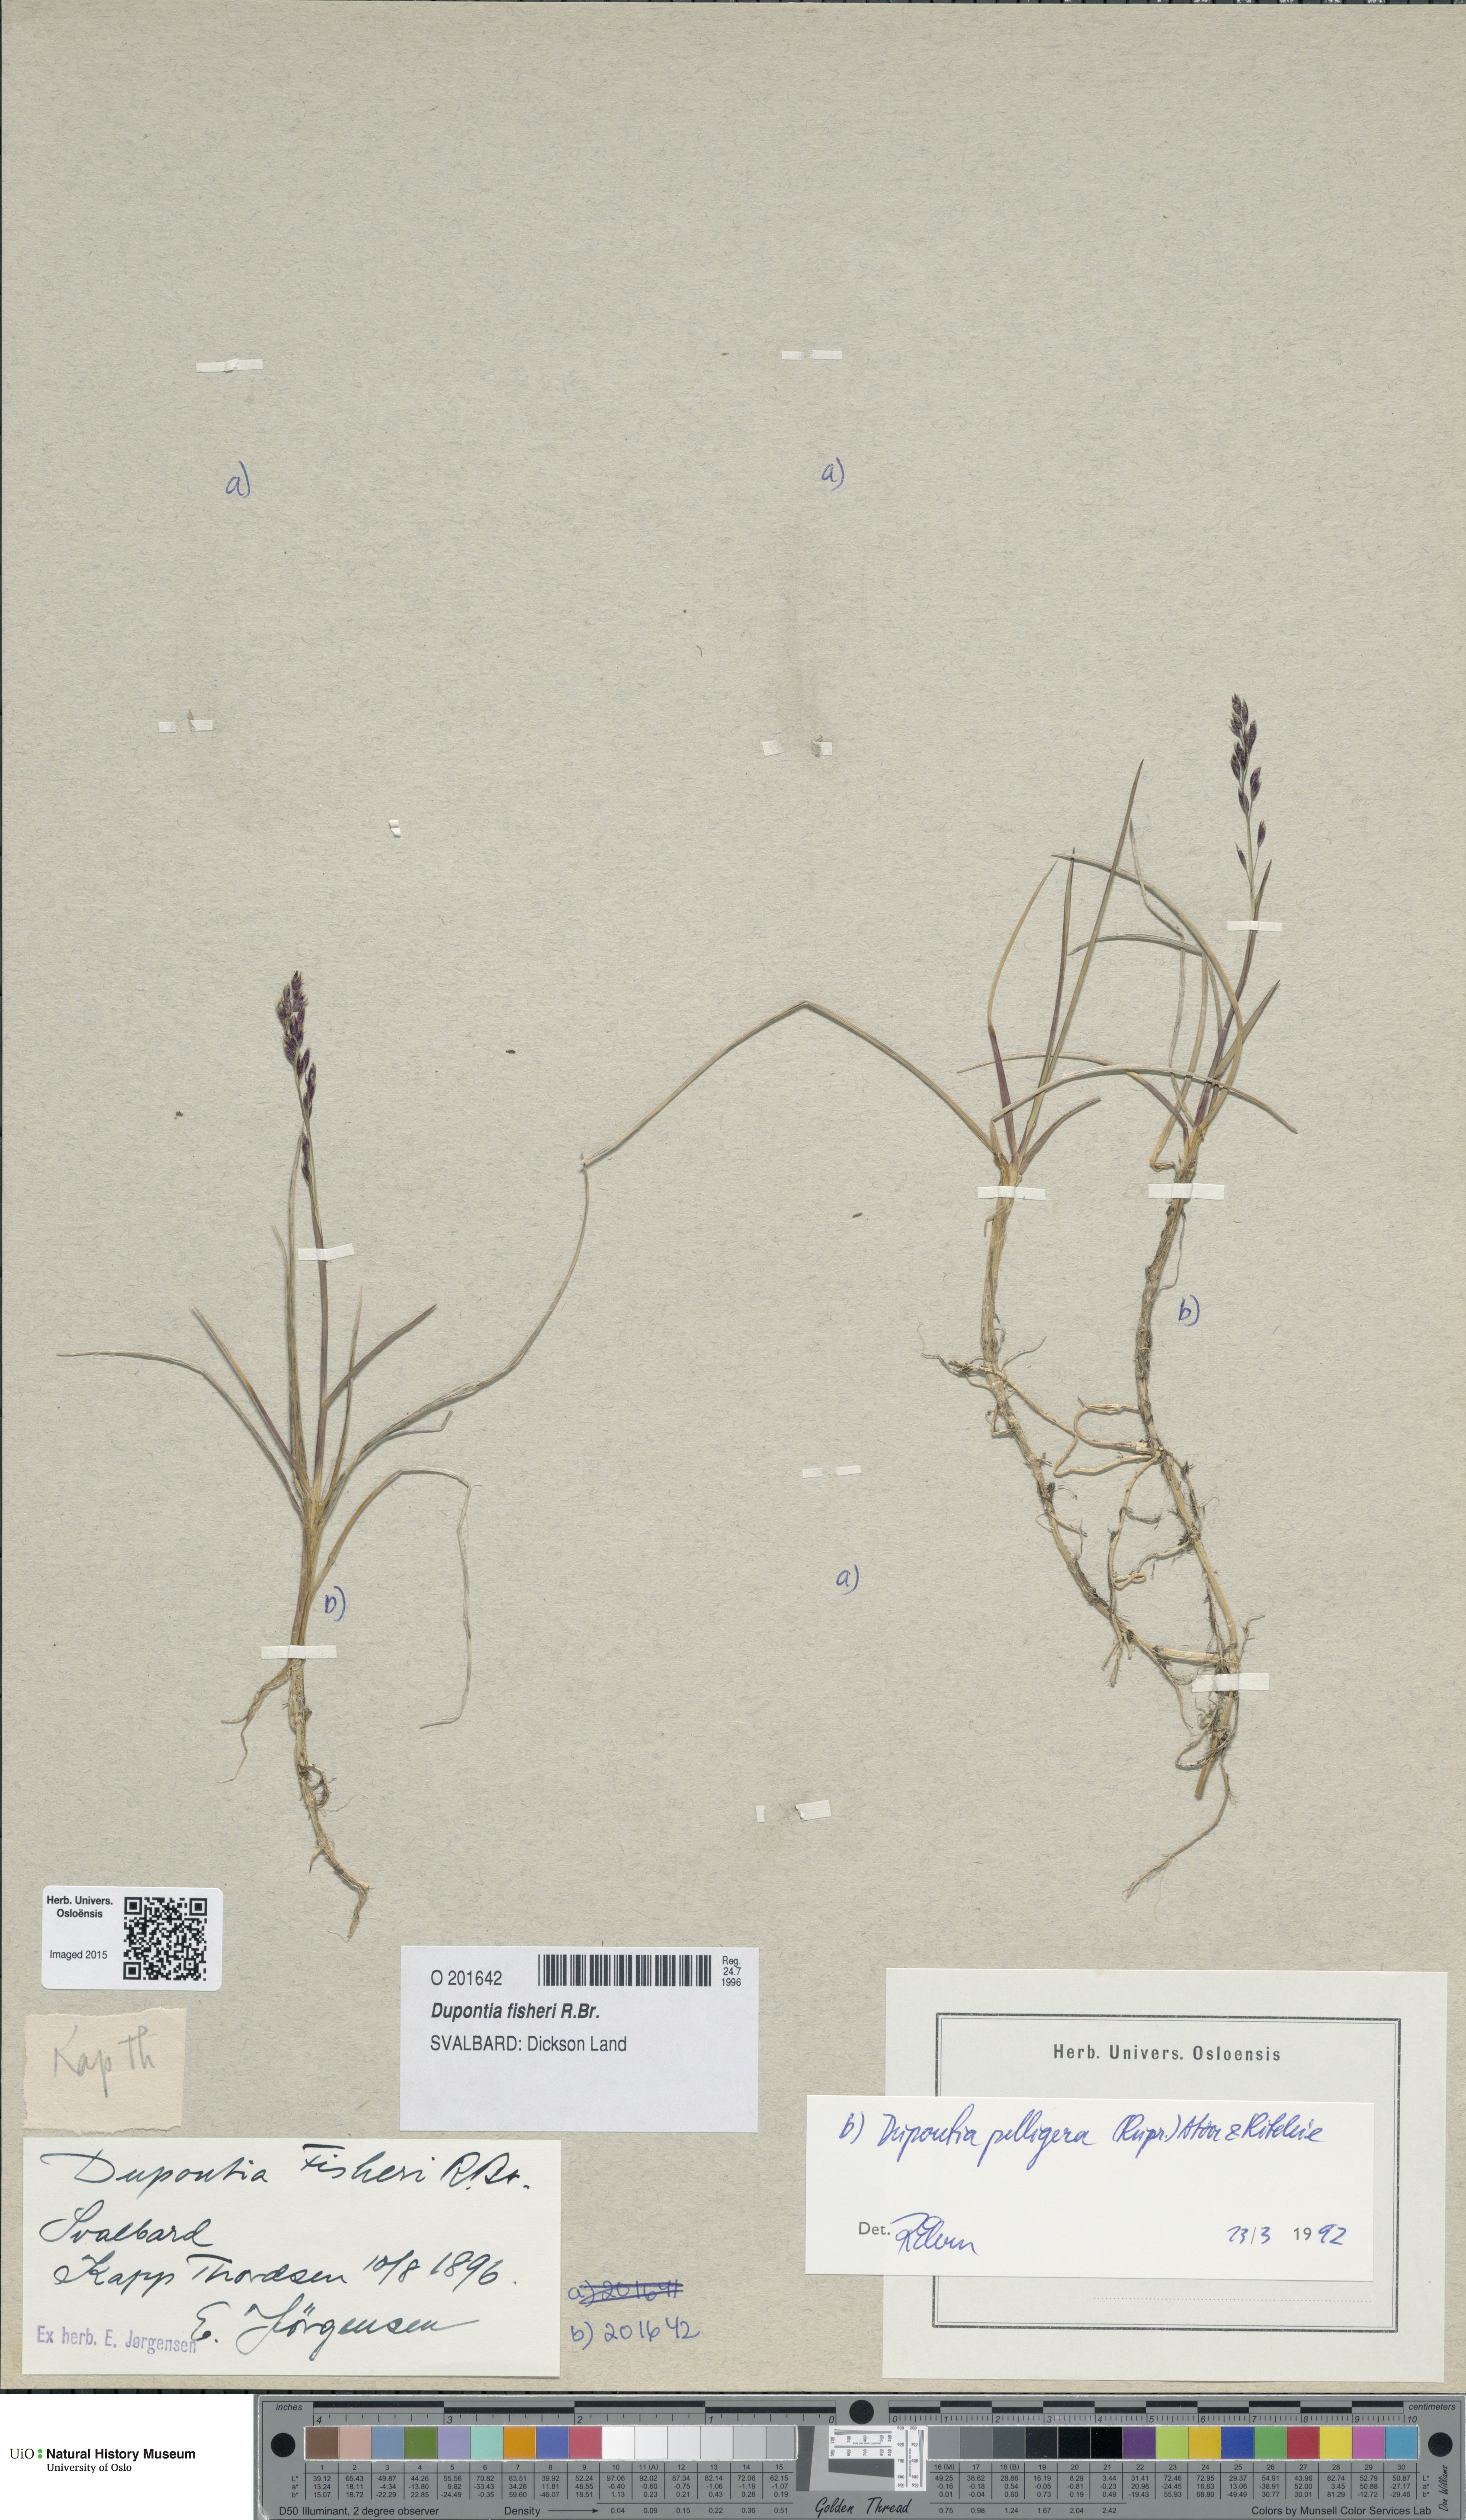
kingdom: Plantae
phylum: Tracheophyta
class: Liliopsida
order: Poales
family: Poaceae
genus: Dupontia
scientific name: Dupontia fisheri
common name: Tundra grass
